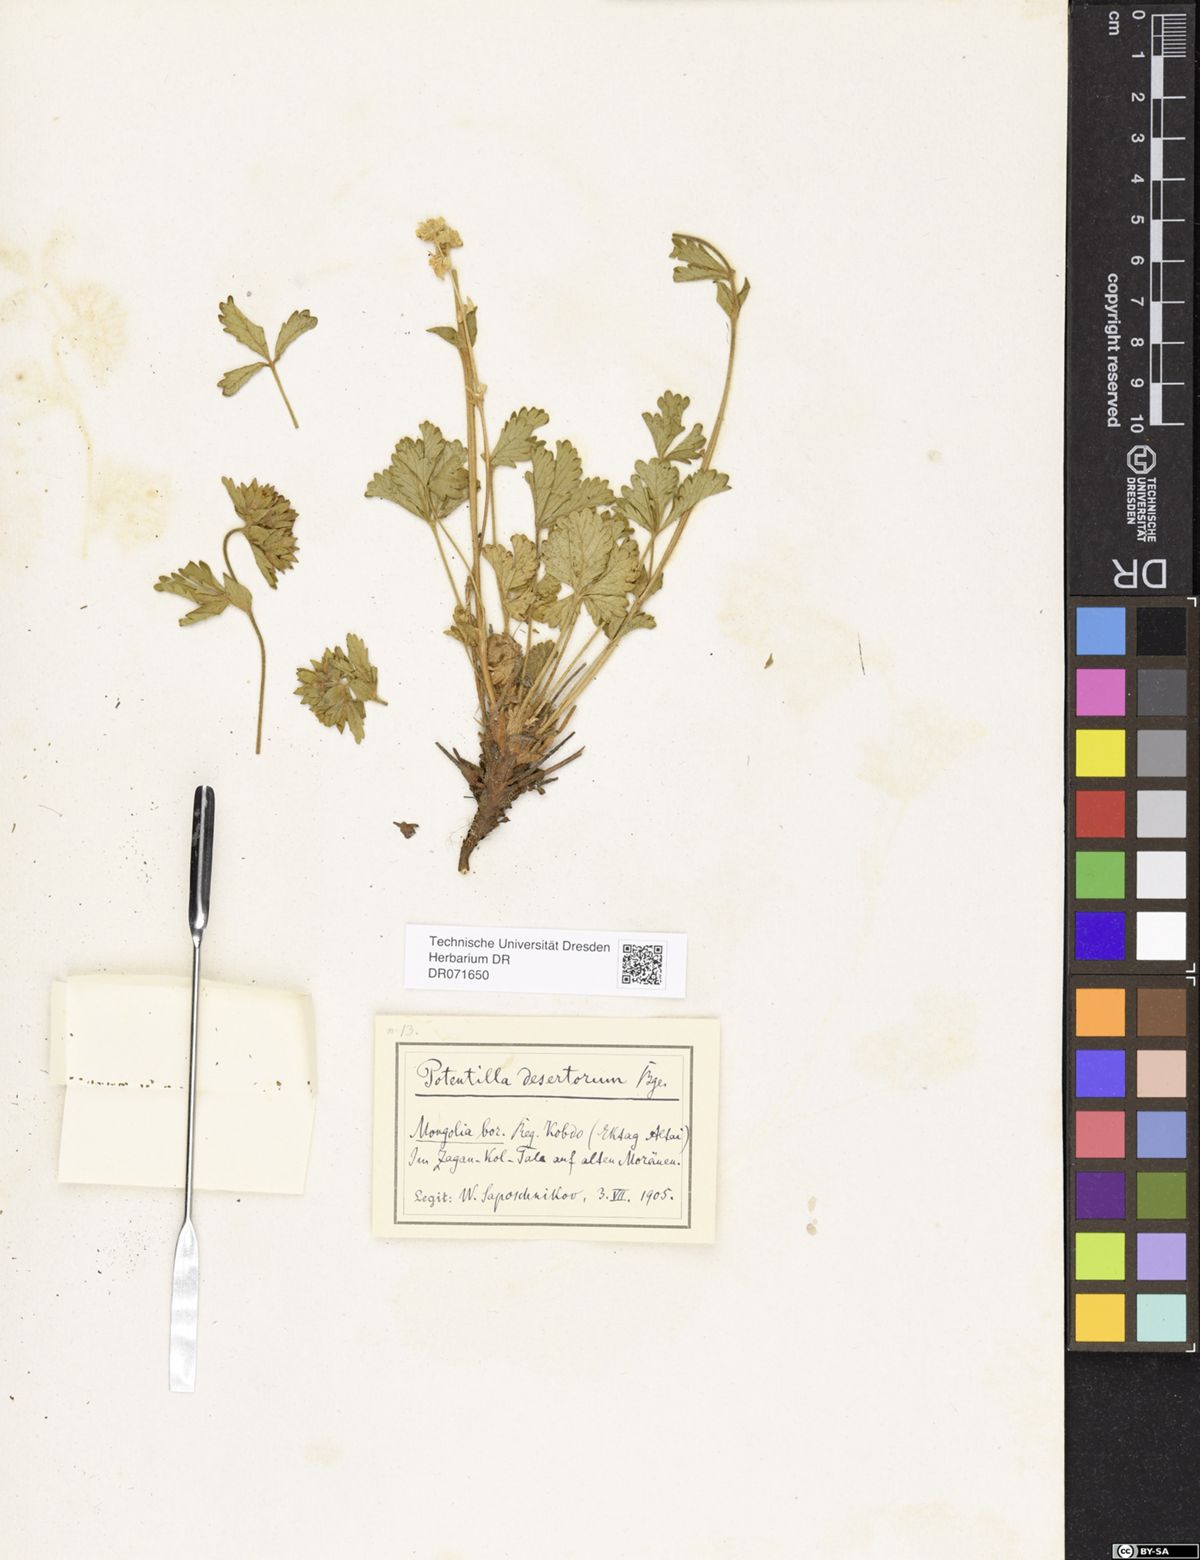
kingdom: Plantae
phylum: Tracheophyta
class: Magnoliopsida
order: Rosales
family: Rosaceae
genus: Potentilla
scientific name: Potentilla desertorum
